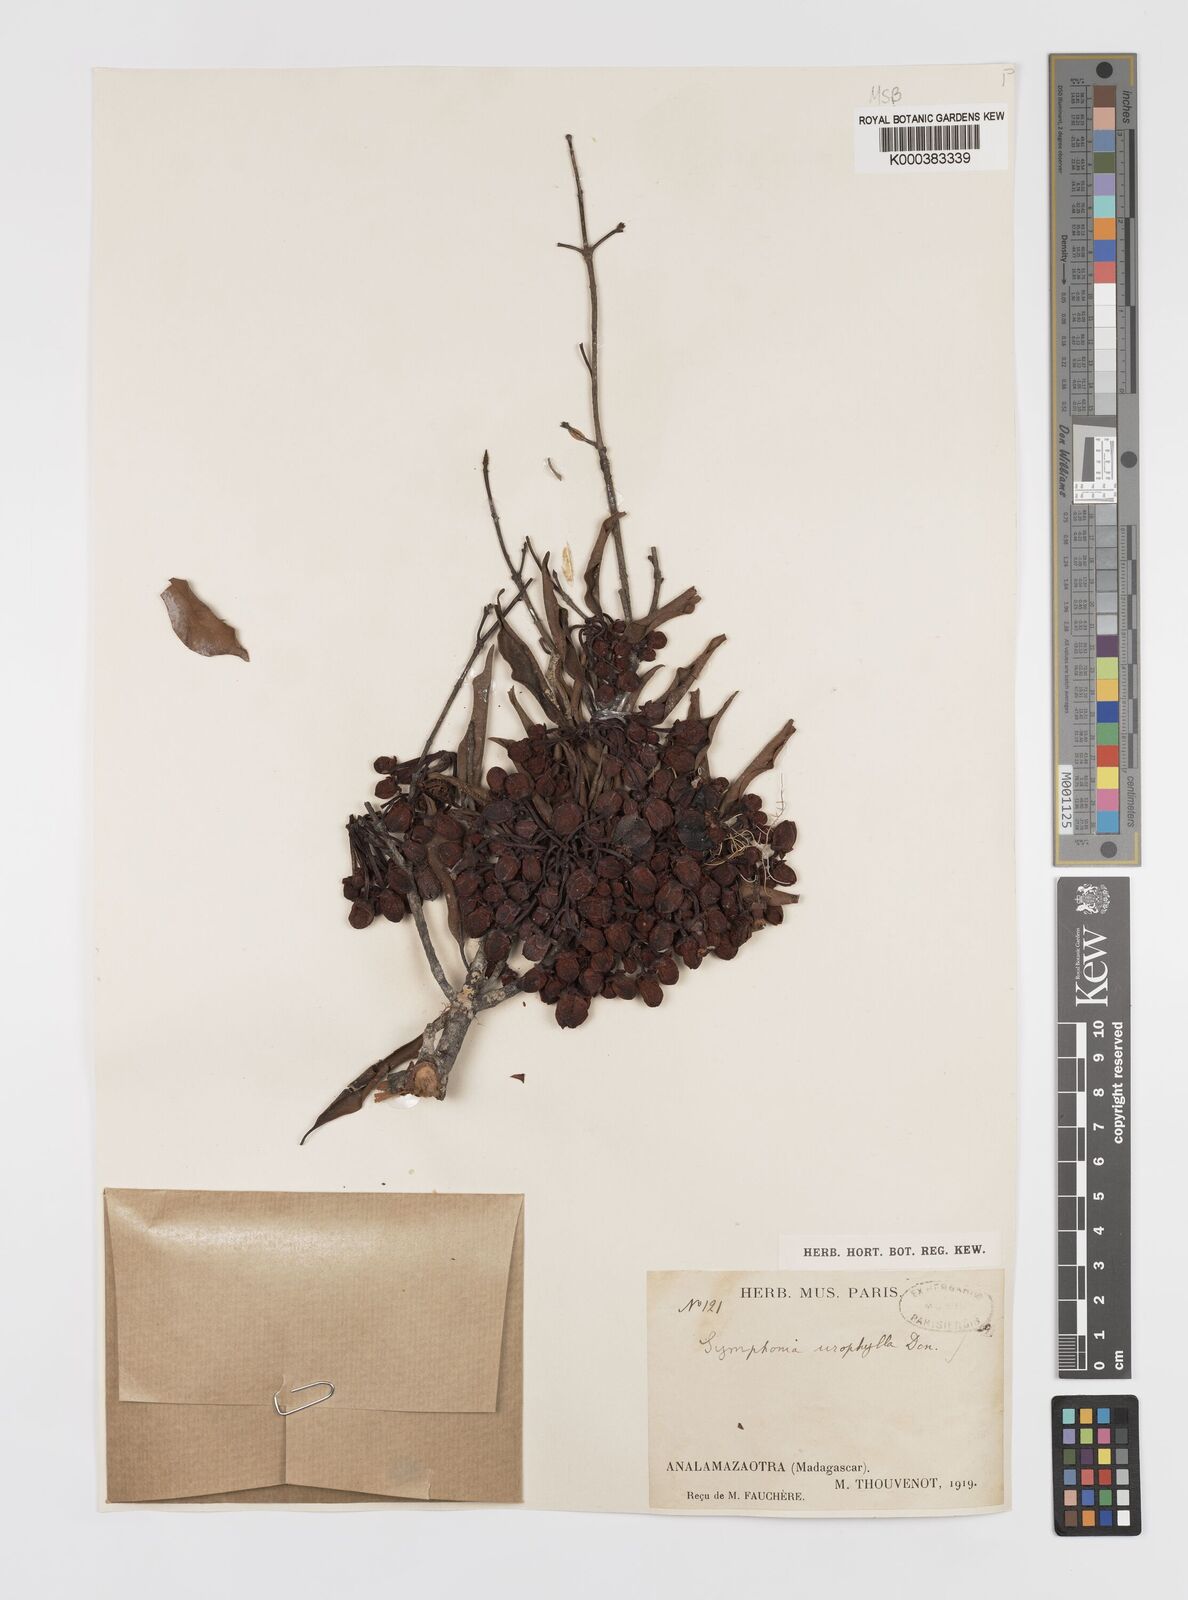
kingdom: Plantae
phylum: Tracheophyta
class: Magnoliopsida
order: Malpighiales
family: Clusiaceae
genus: Symphonia
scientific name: Symphonia
